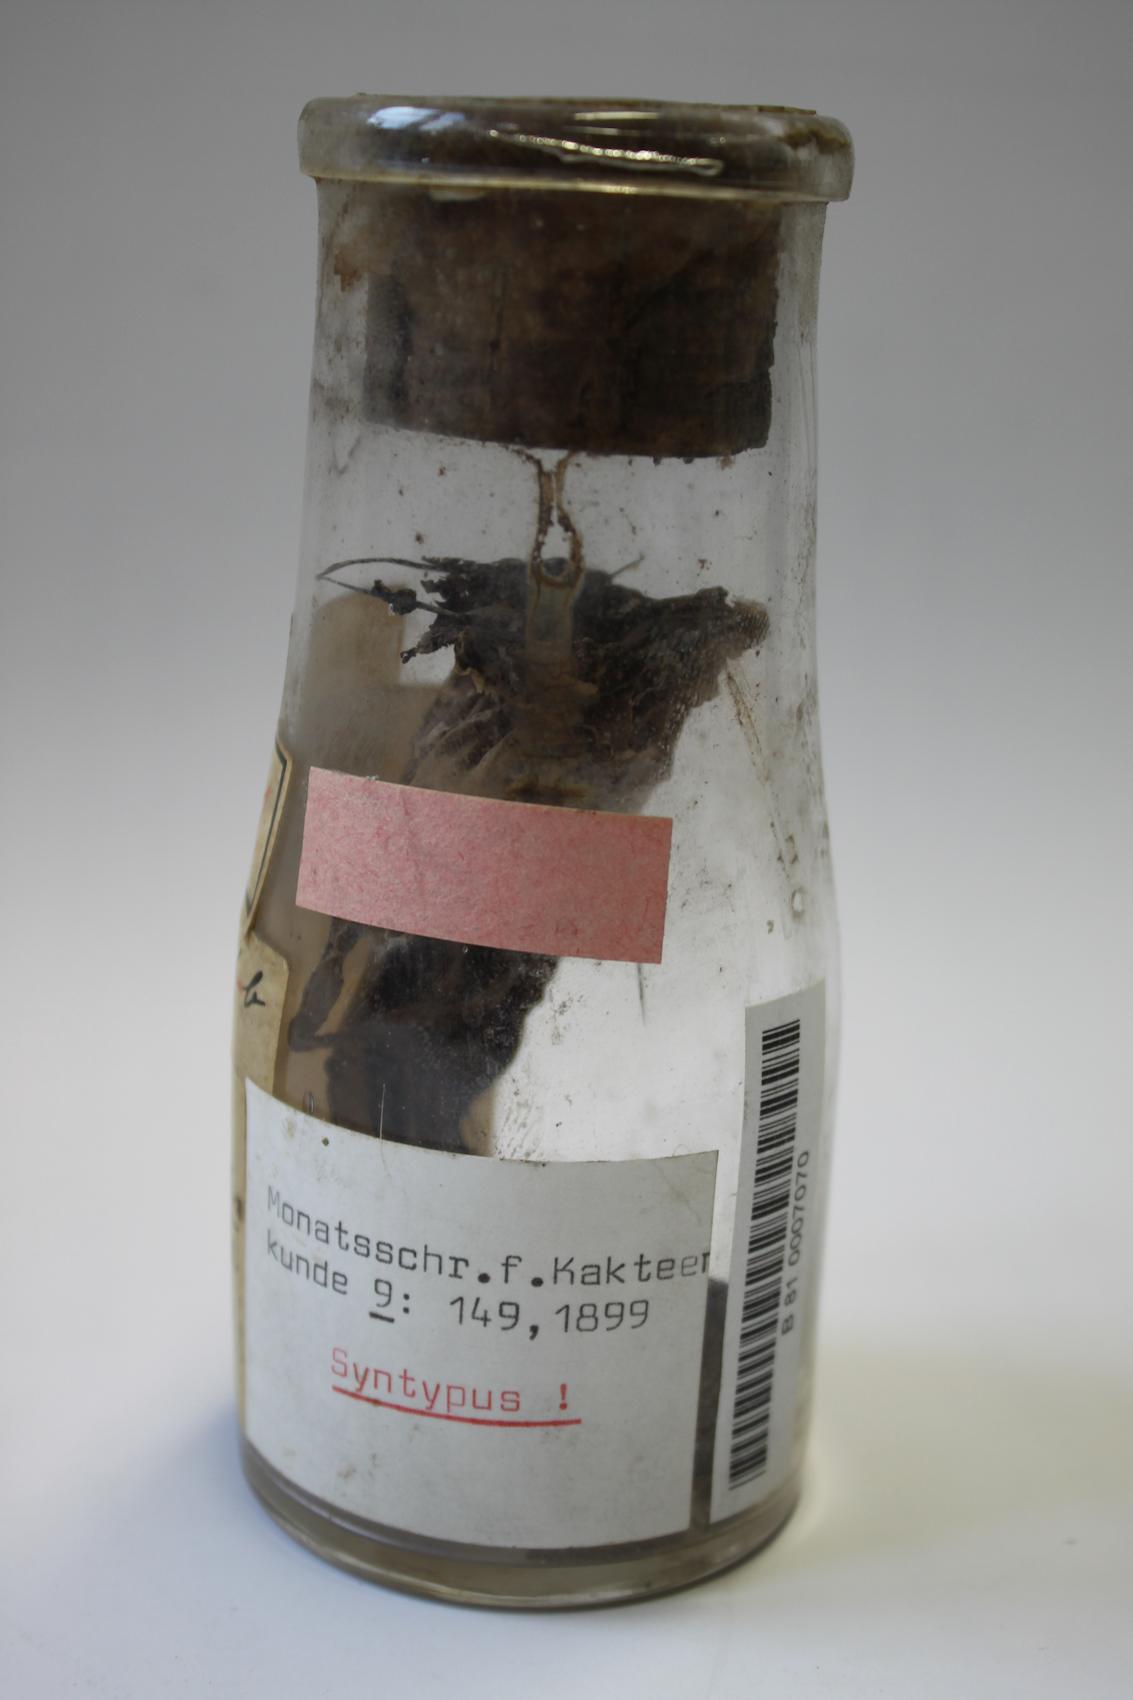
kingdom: Plantae
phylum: Tracheophyta
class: Magnoliopsida
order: Caryophyllales
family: Cactaceae
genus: Opuntia
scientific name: Opuntia stenarthra
